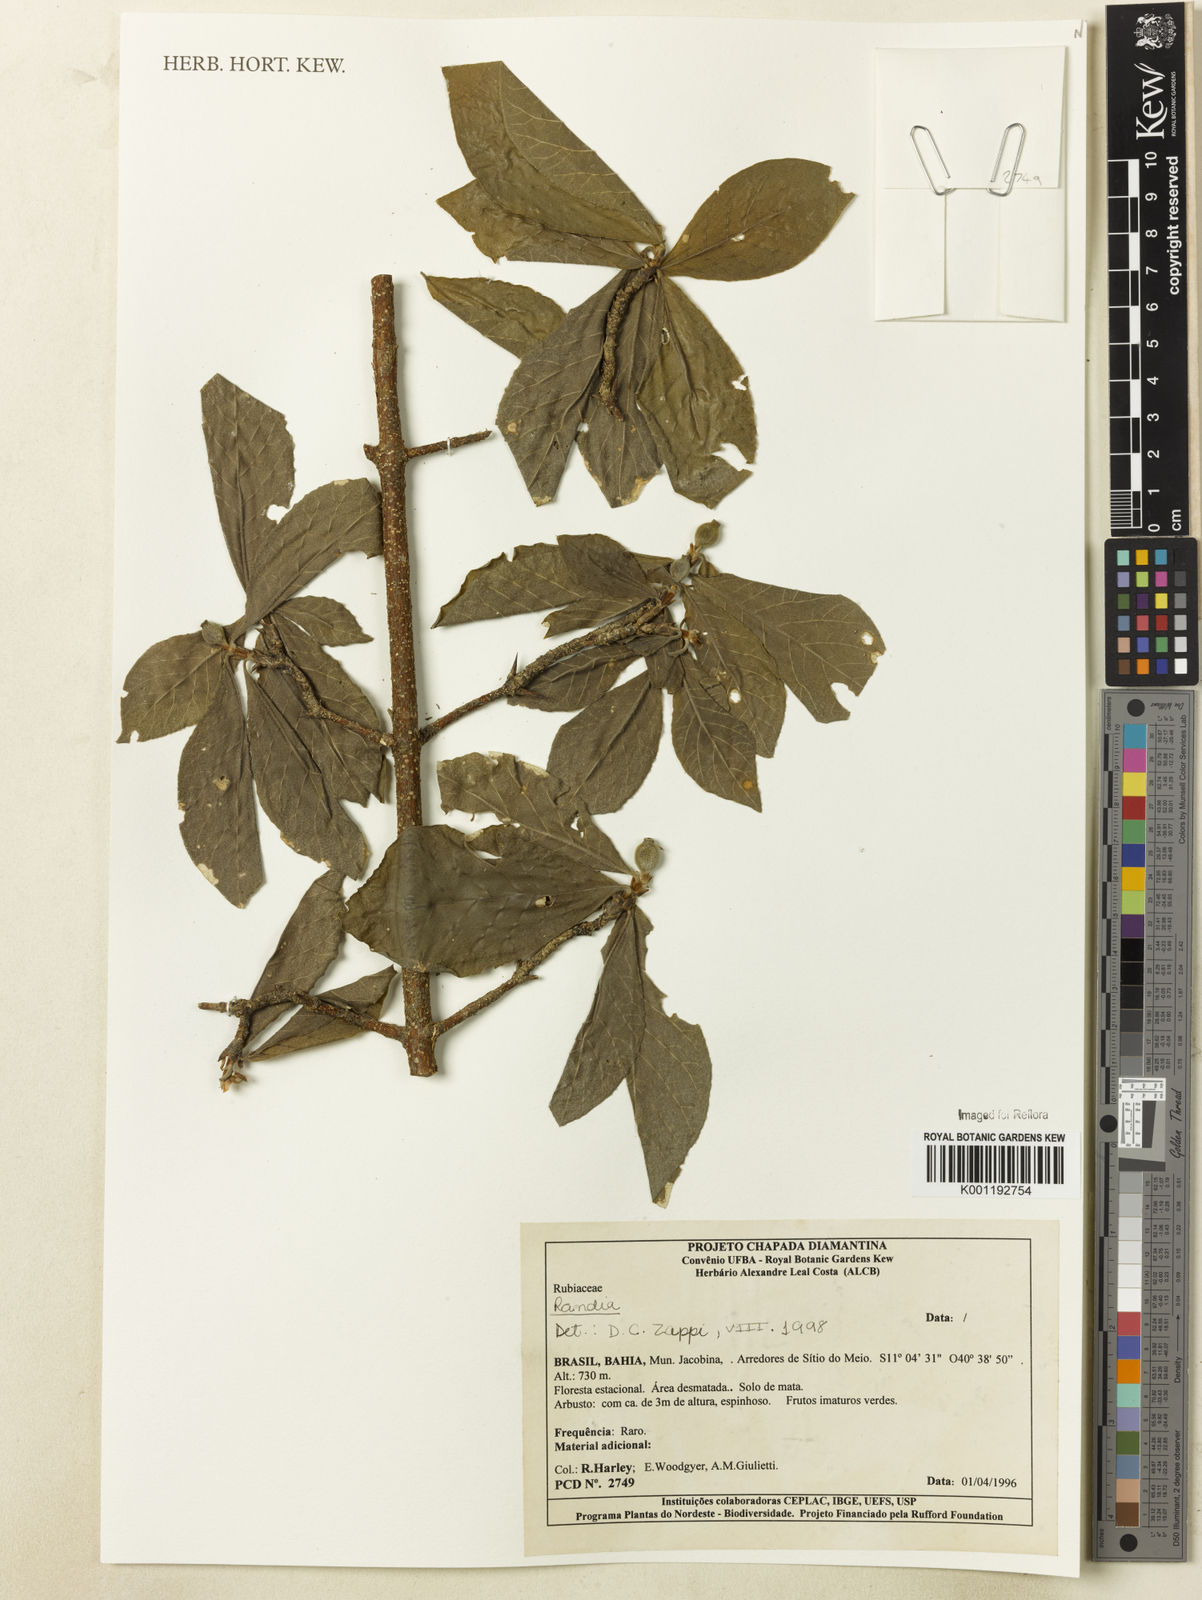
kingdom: Plantae
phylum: Tracheophyta
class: Magnoliopsida
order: Gentianales
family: Rubiaceae
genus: Randia
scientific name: Randia
